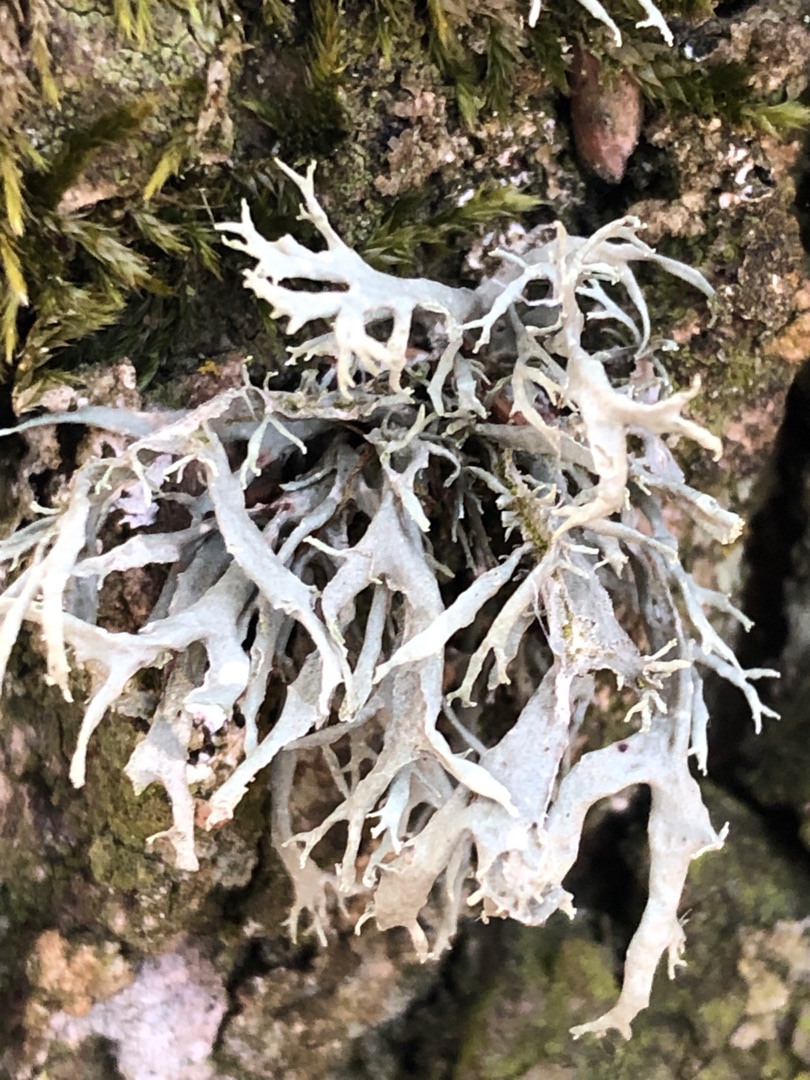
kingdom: Fungi
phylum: Ascomycota
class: Lecanoromycetes
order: Lecanorales
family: Parmeliaceae
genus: Evernia
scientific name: Evernia prunastri
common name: Almindelig slåenlav
